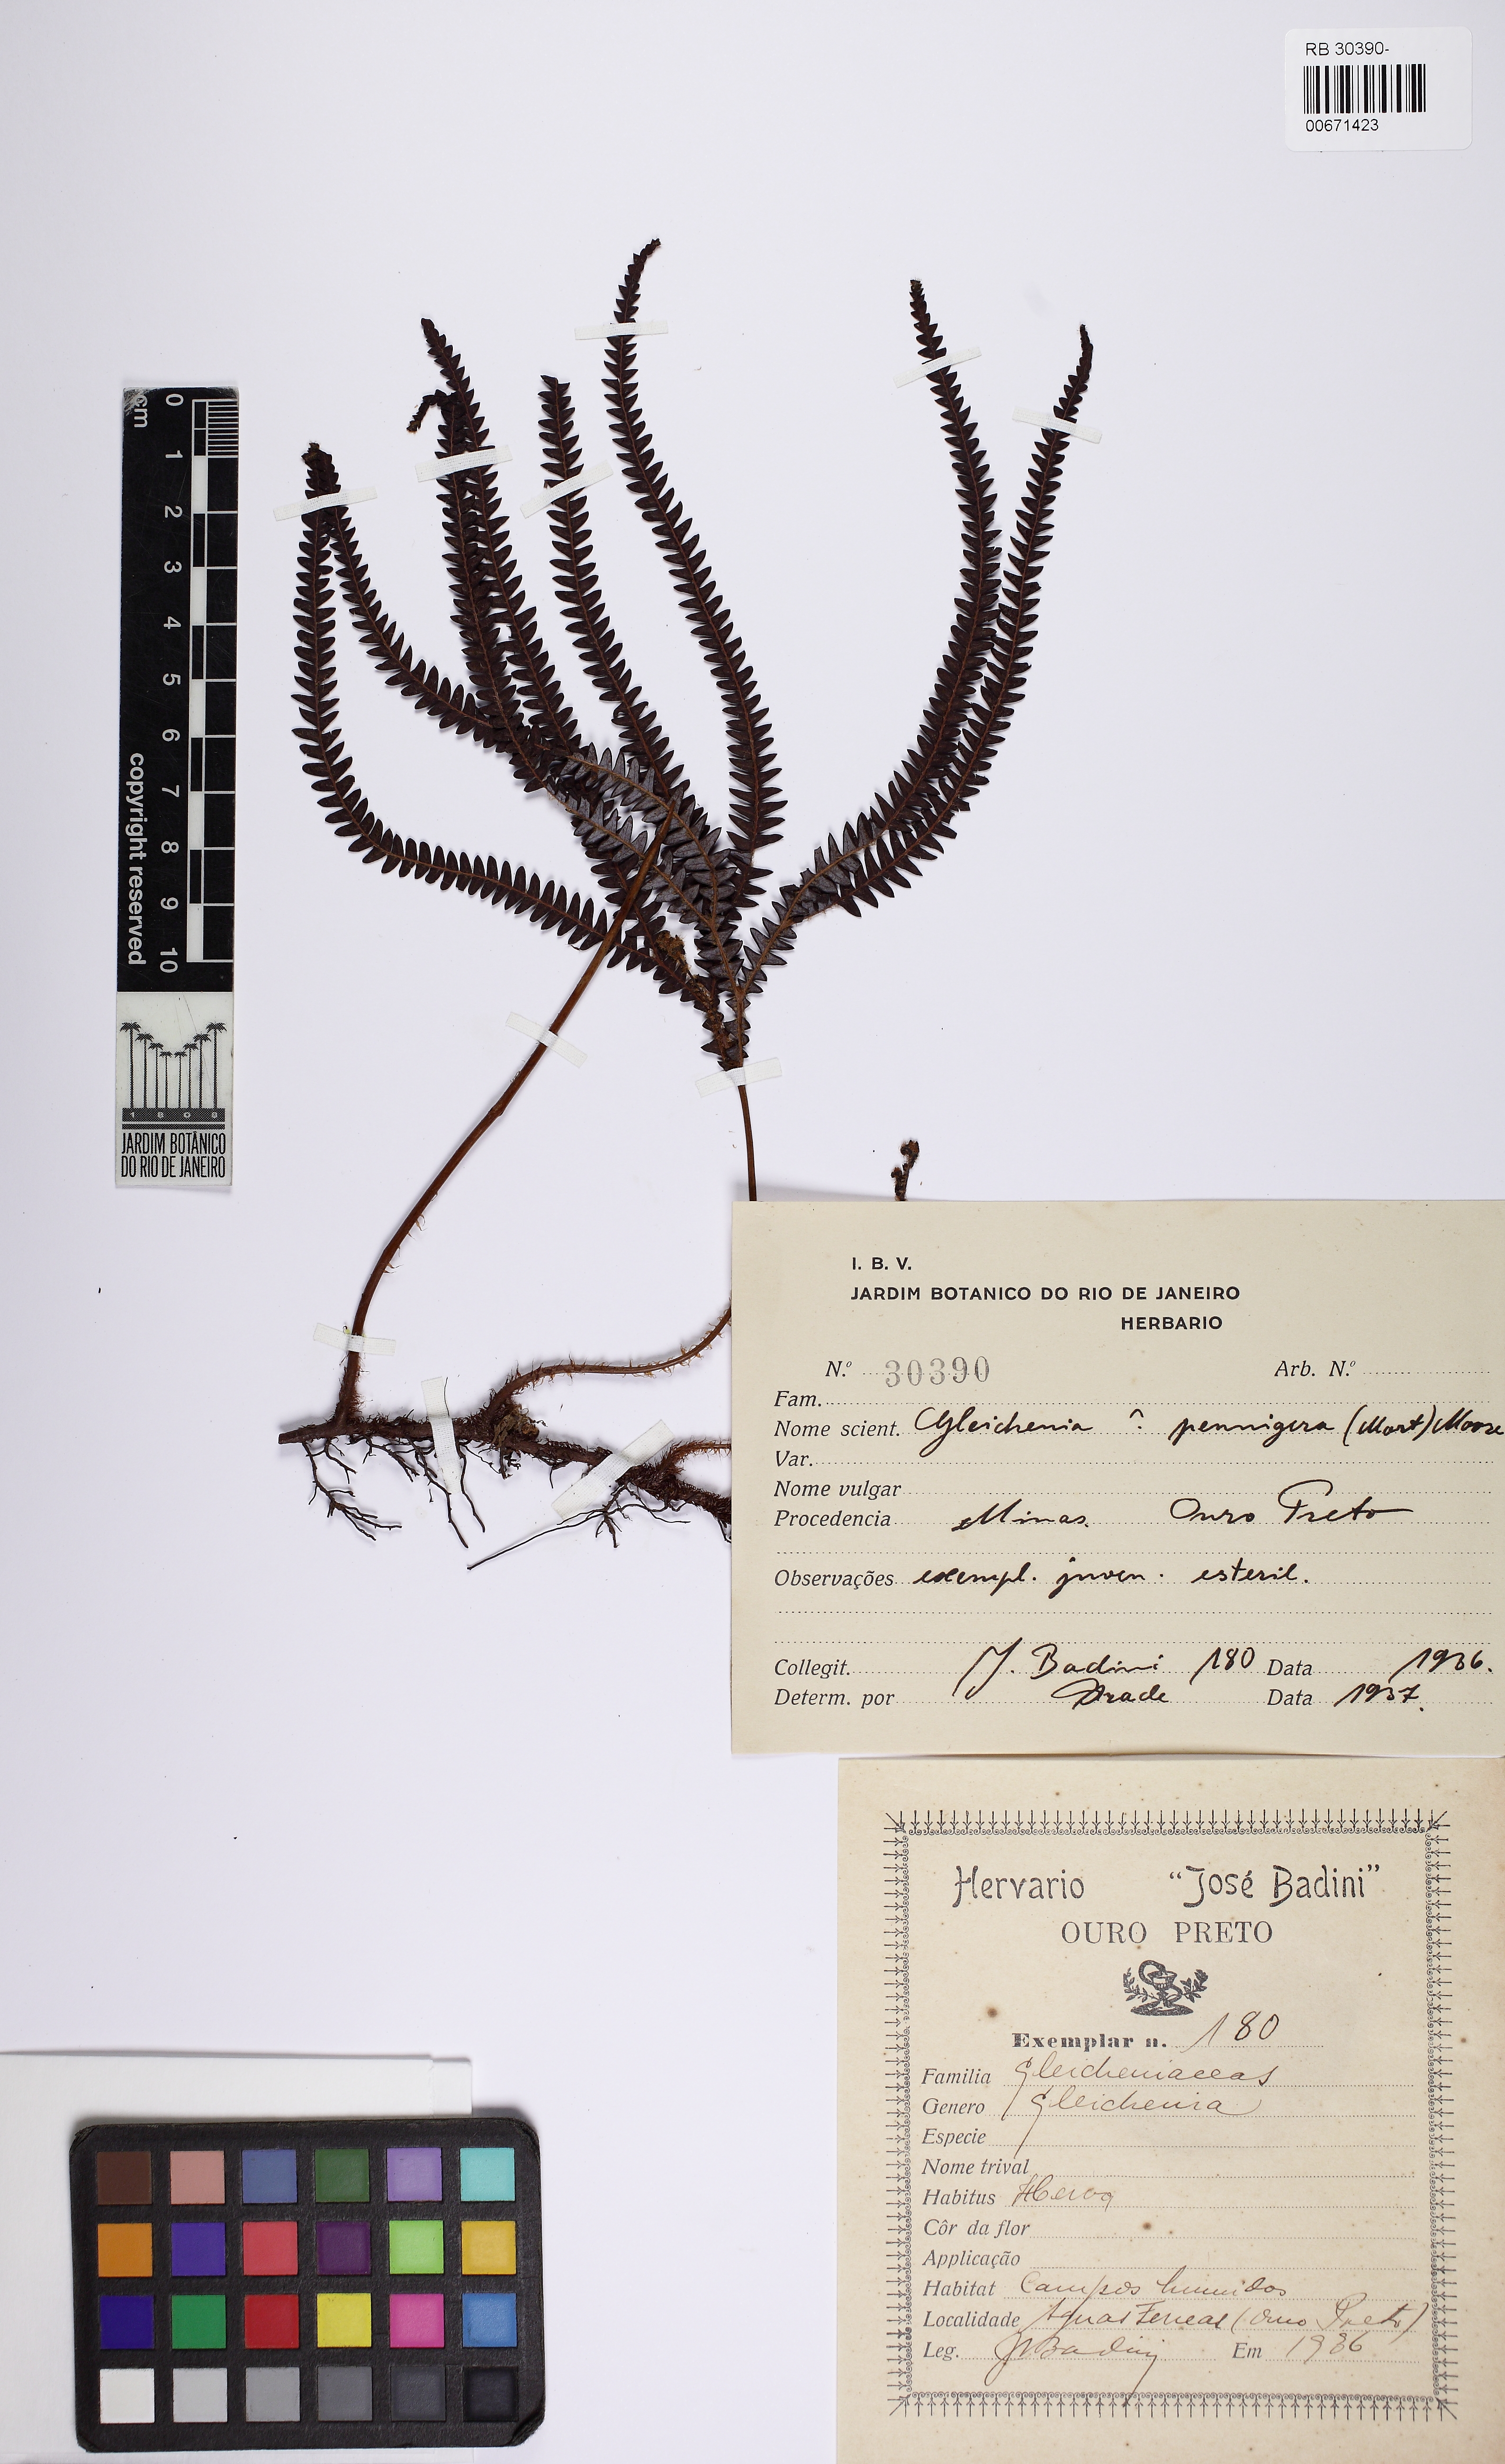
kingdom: Plantae
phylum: Tracheophyta
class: Polypodiopsida
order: Gleicheniales
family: Gleicheniaceae
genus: Sticherus
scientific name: Sticherus pruinosus
